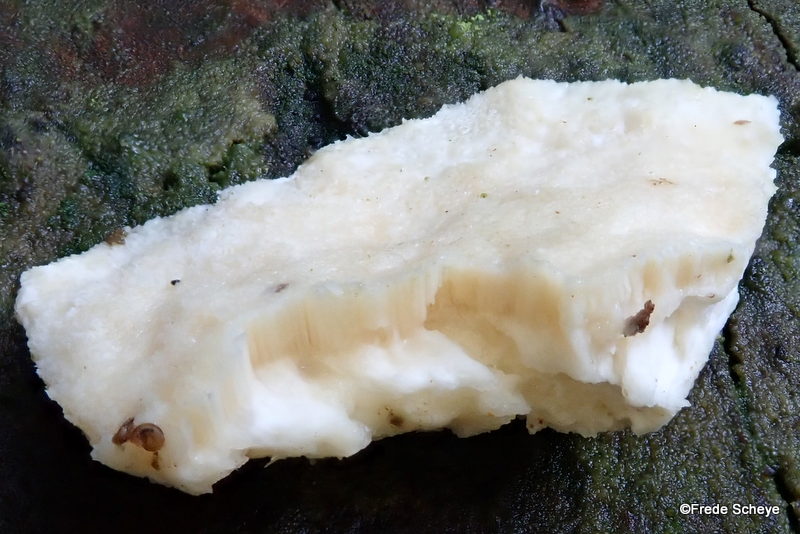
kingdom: Fungi
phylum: Basidiomycota
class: Agaricomycetes
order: Polyporales
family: Incrustoporiaceae
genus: Tyromyces
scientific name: Tyromyces lacteus
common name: mælkehvid kødporesvamp
